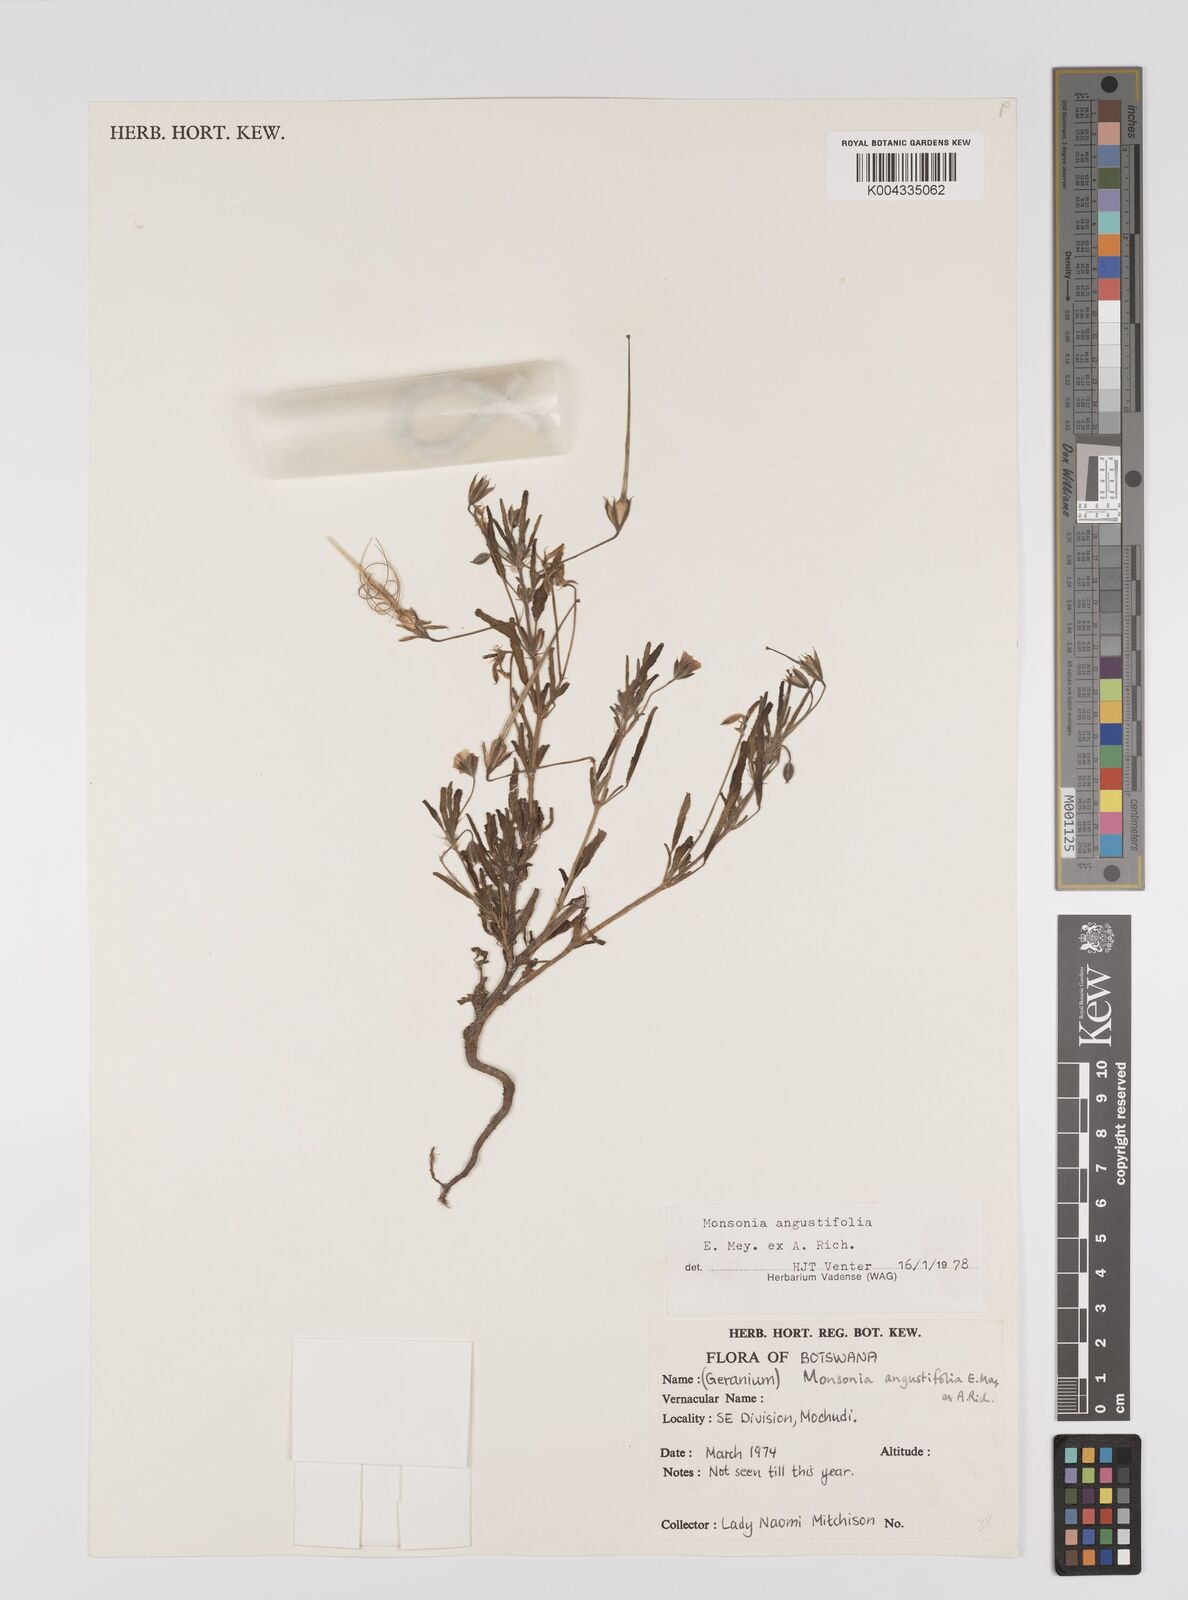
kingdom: Plantae
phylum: Tracheophyta
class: Magnoliopsida
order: Geraniales
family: Geraniaceae
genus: Monsonia
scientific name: Monsonia angustifolia
